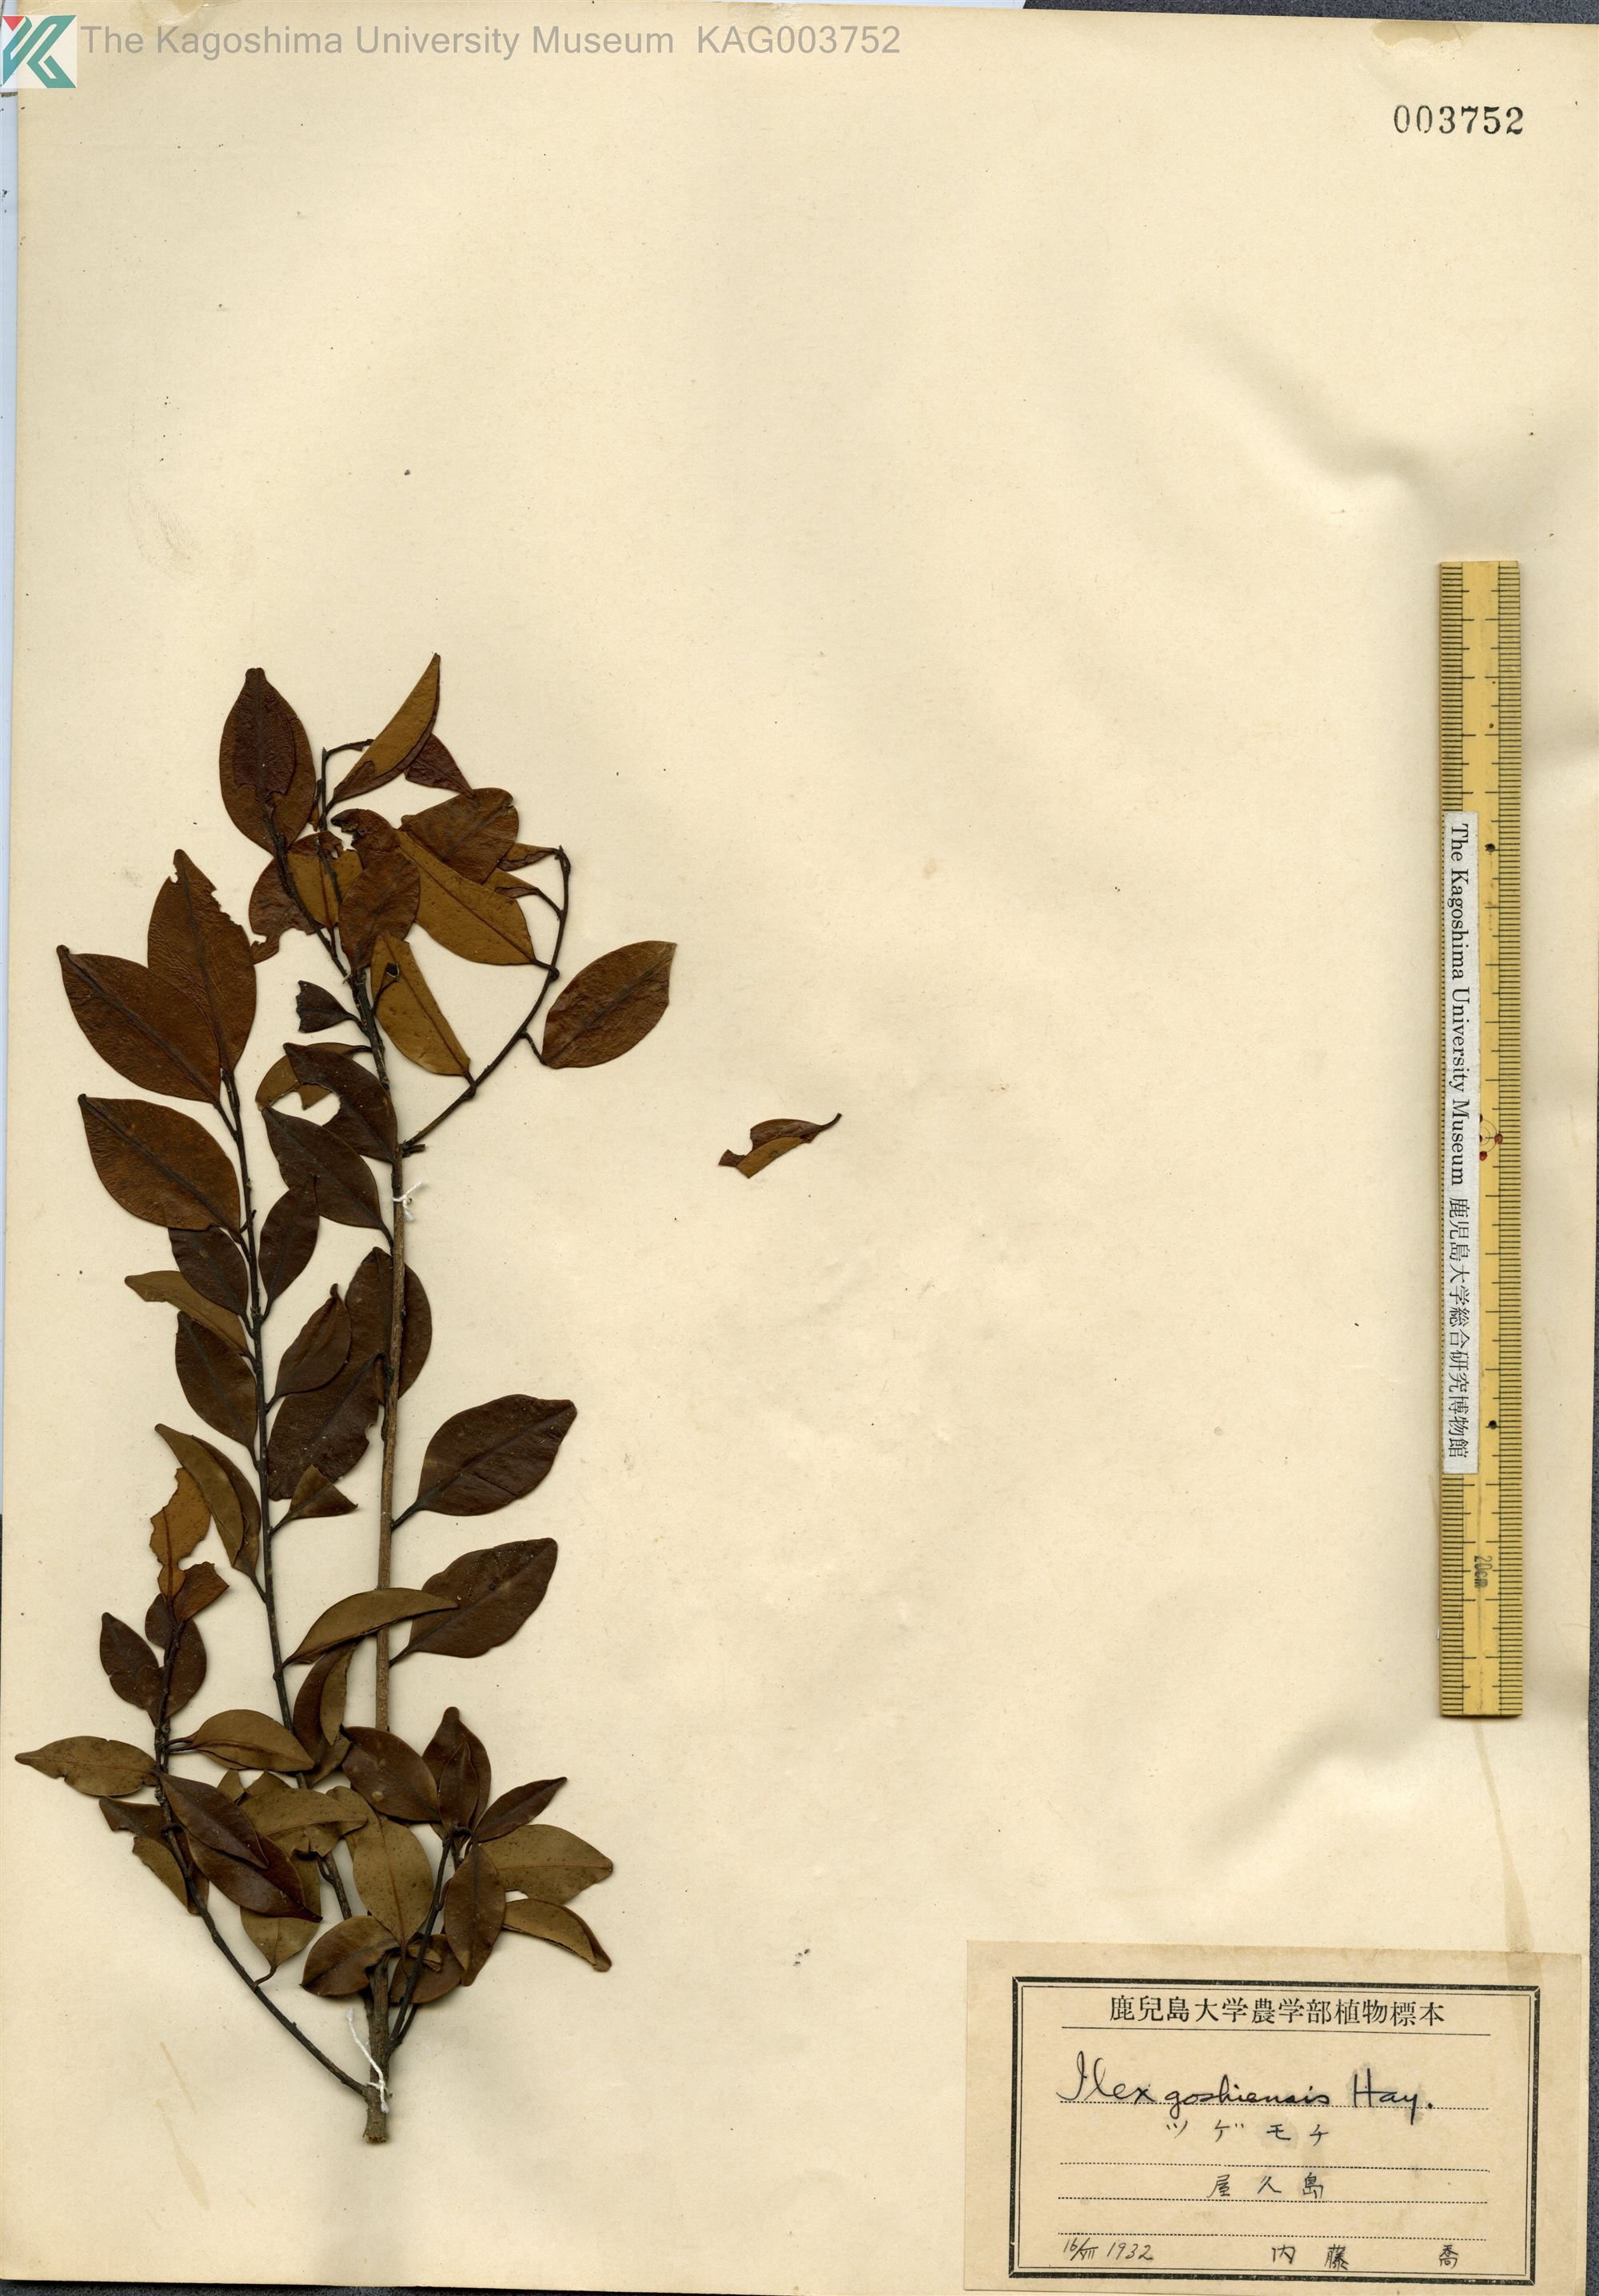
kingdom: Plantae
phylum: Tracheophyta
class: Magnoliopsida
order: Aquifoliales
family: Aquifoliaceae
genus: Ilex
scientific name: Ilex goshiensis
